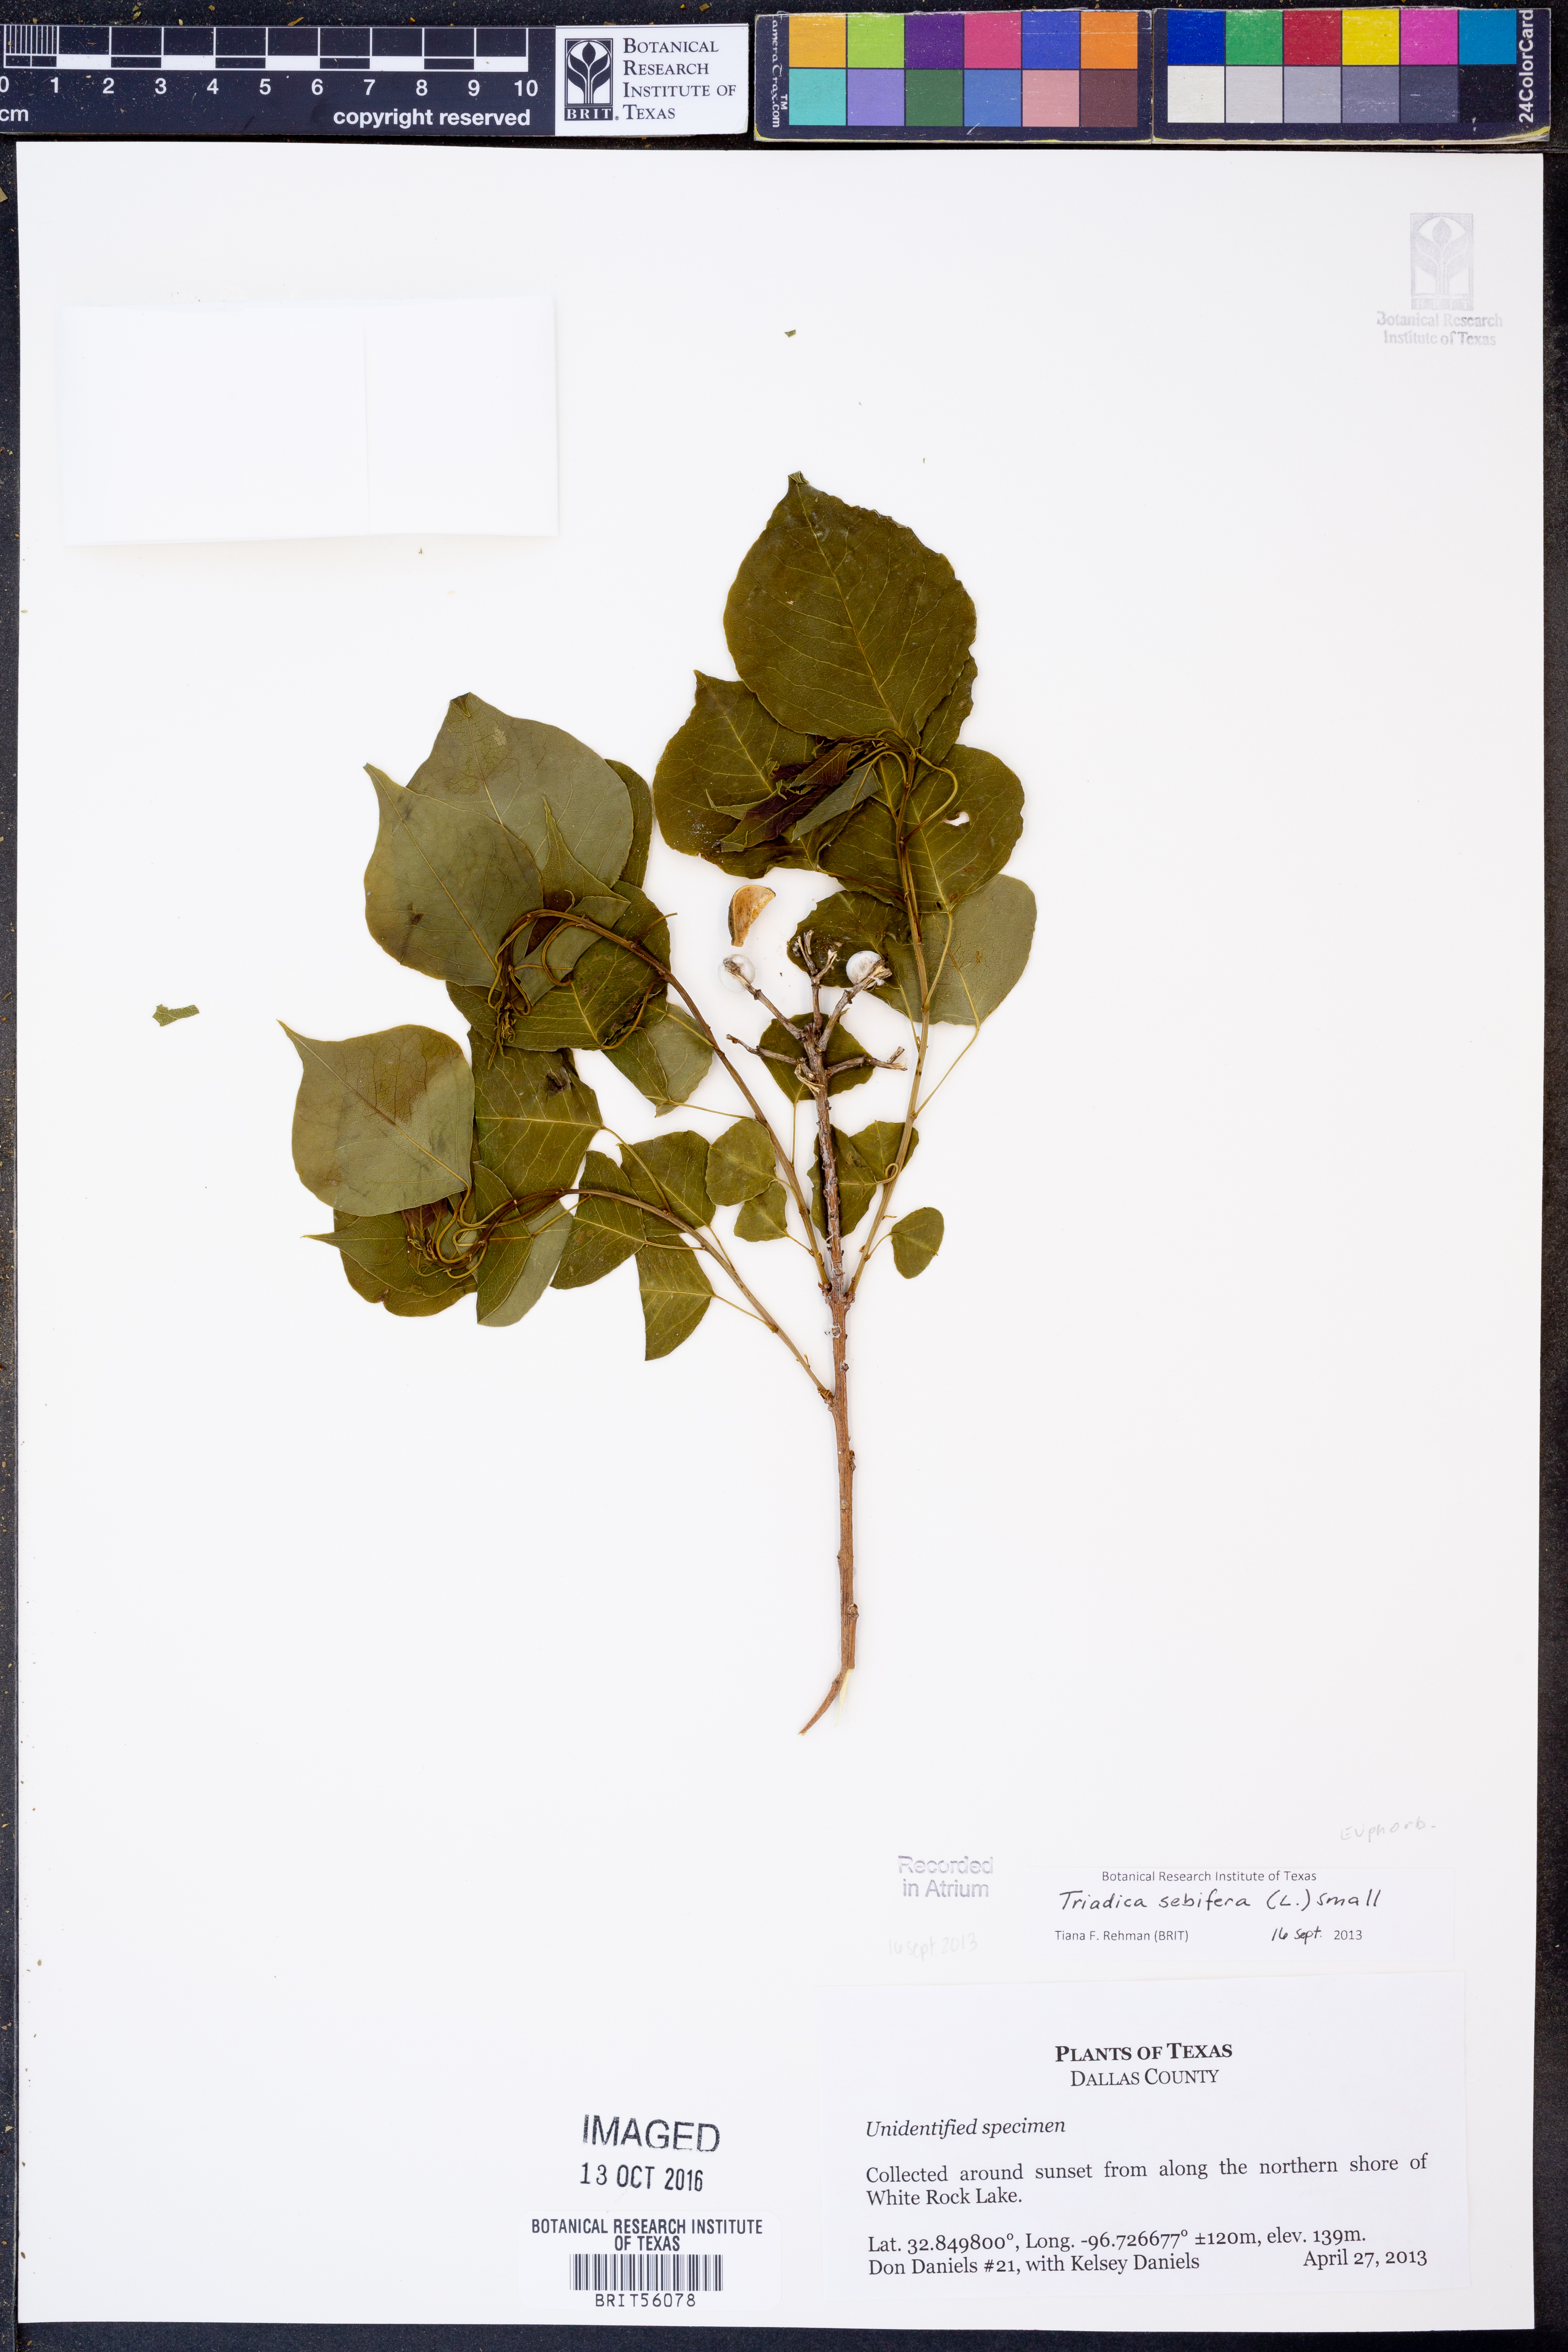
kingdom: Plantae
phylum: Tracheophyta
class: Magnoliopsida
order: Malpighiales
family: Euphorbiaceae
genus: Triadica
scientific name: Triadica sebifera
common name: Chinese tallow
